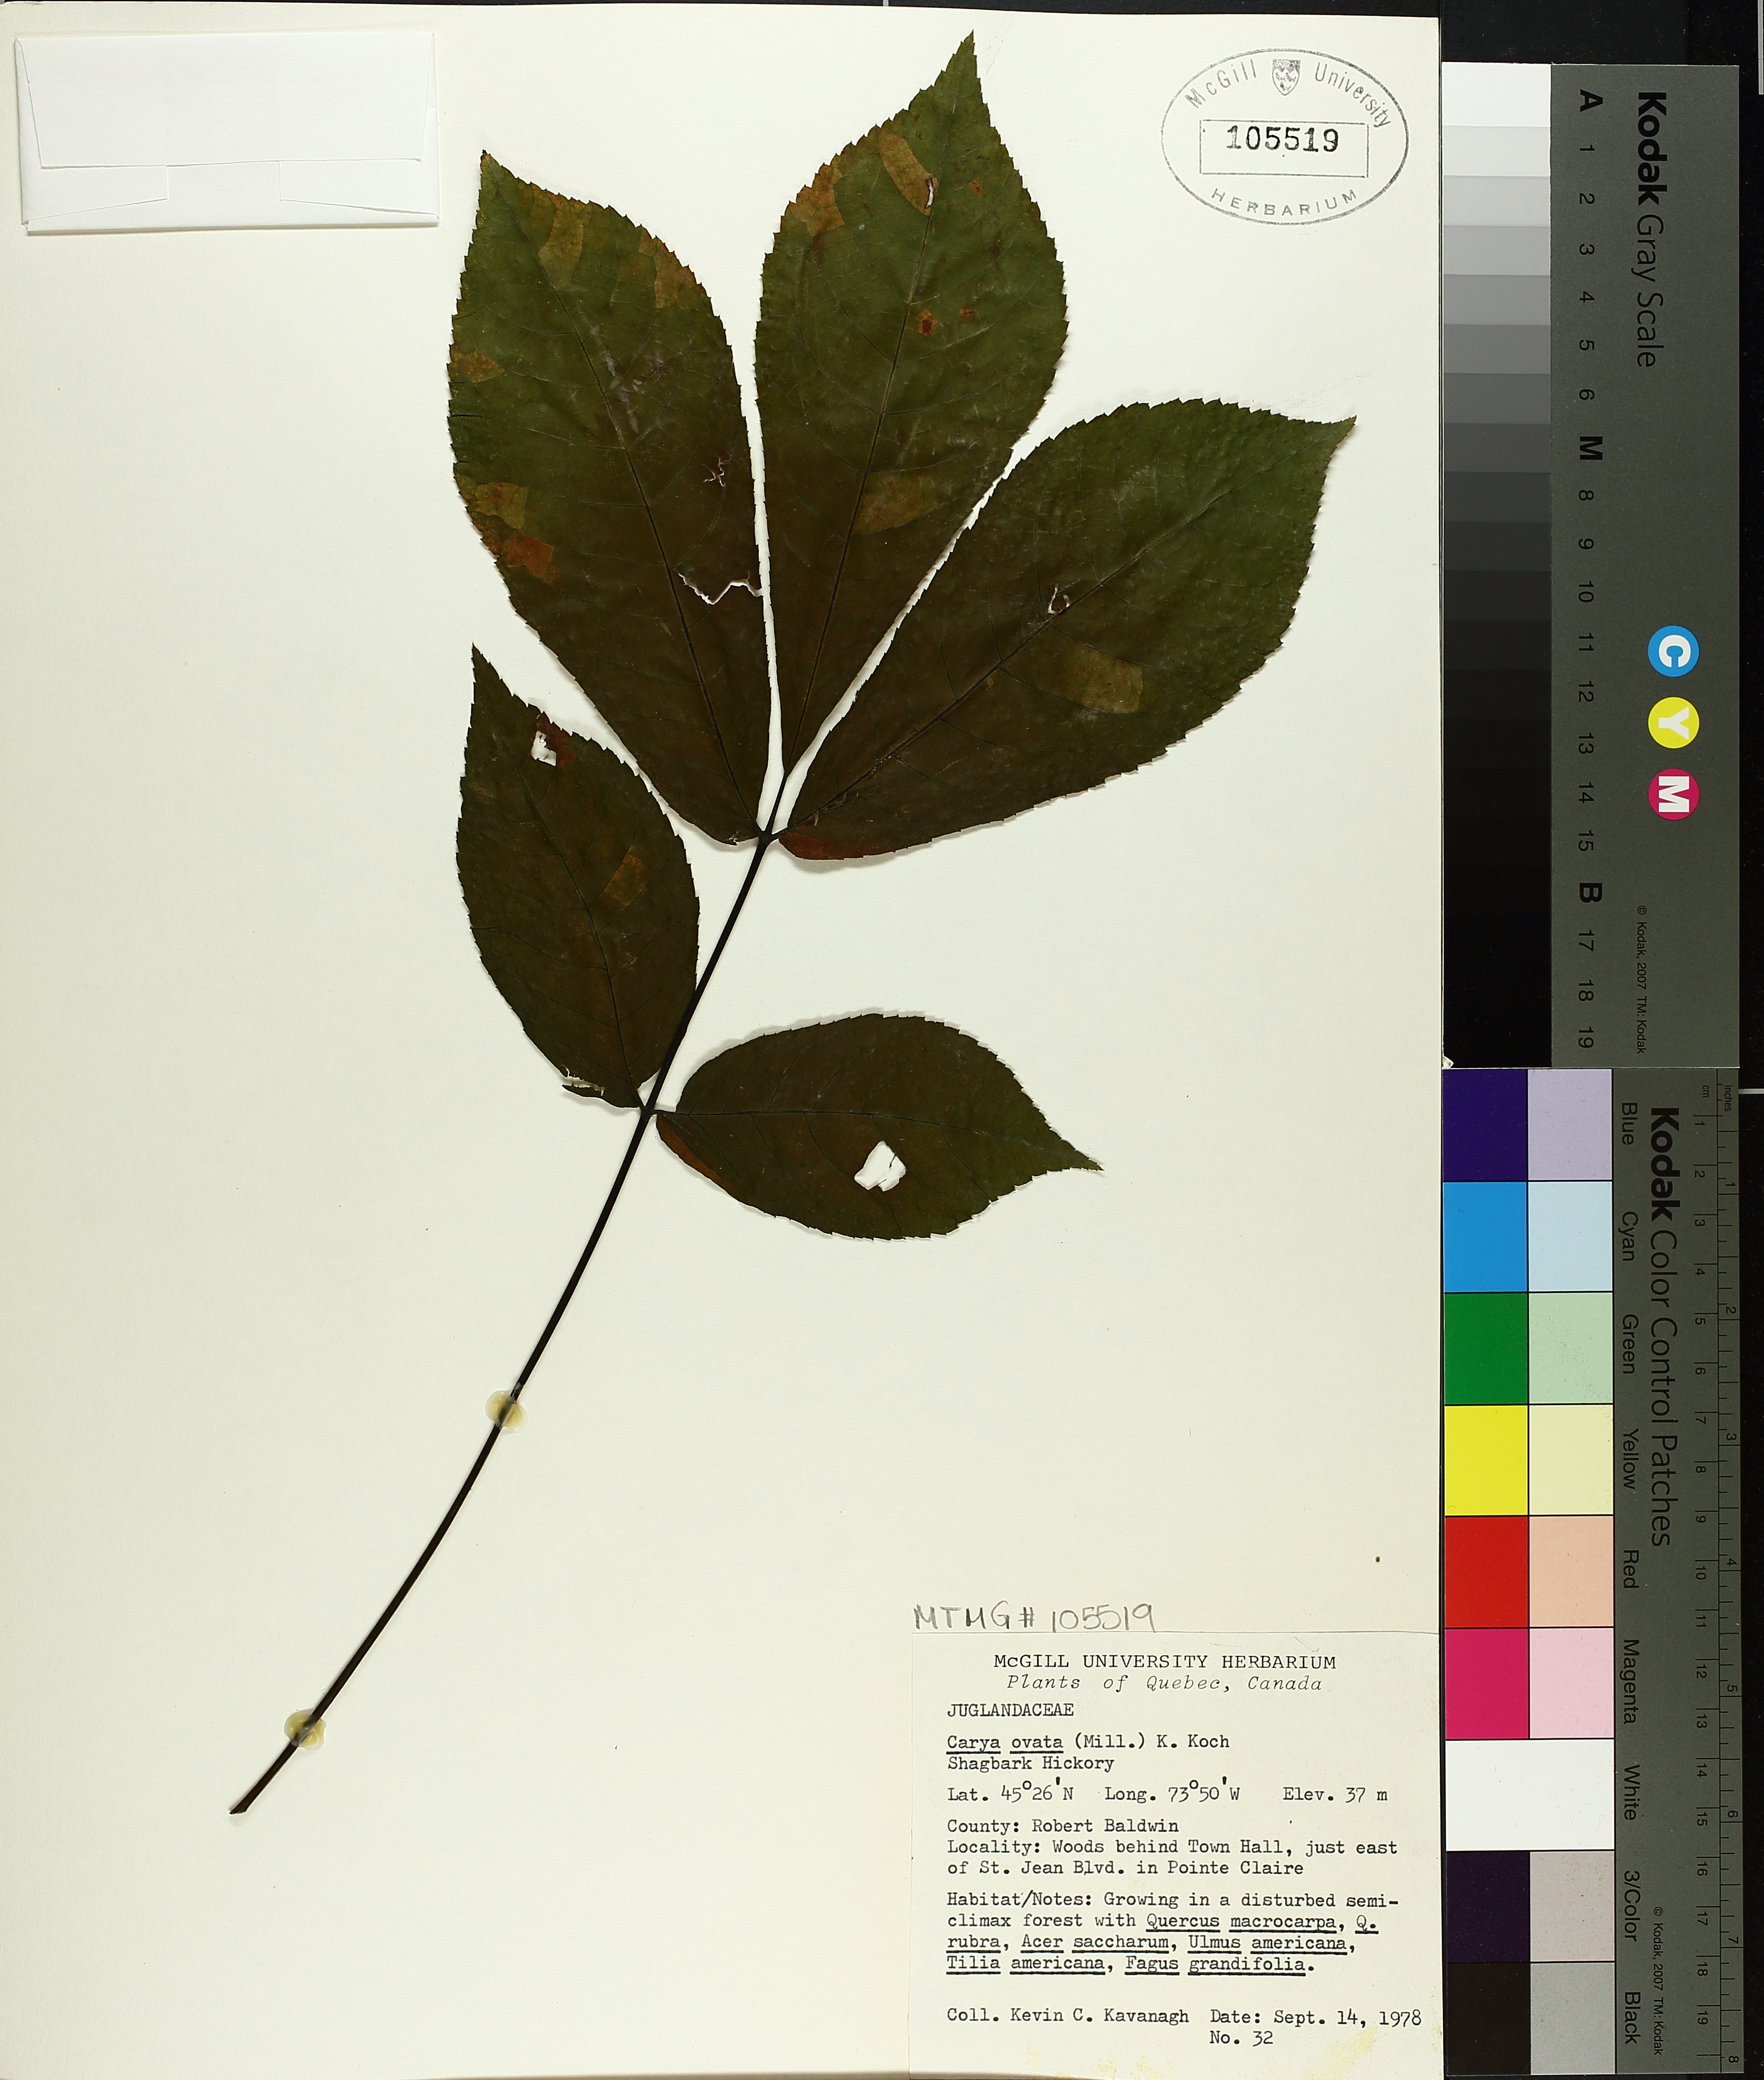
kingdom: Plantae
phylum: Tracheophyta
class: Magnoliopsida
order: Fagales
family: Juglandaceae
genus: Carya
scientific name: Carya ovata
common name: Shagbark hickory
